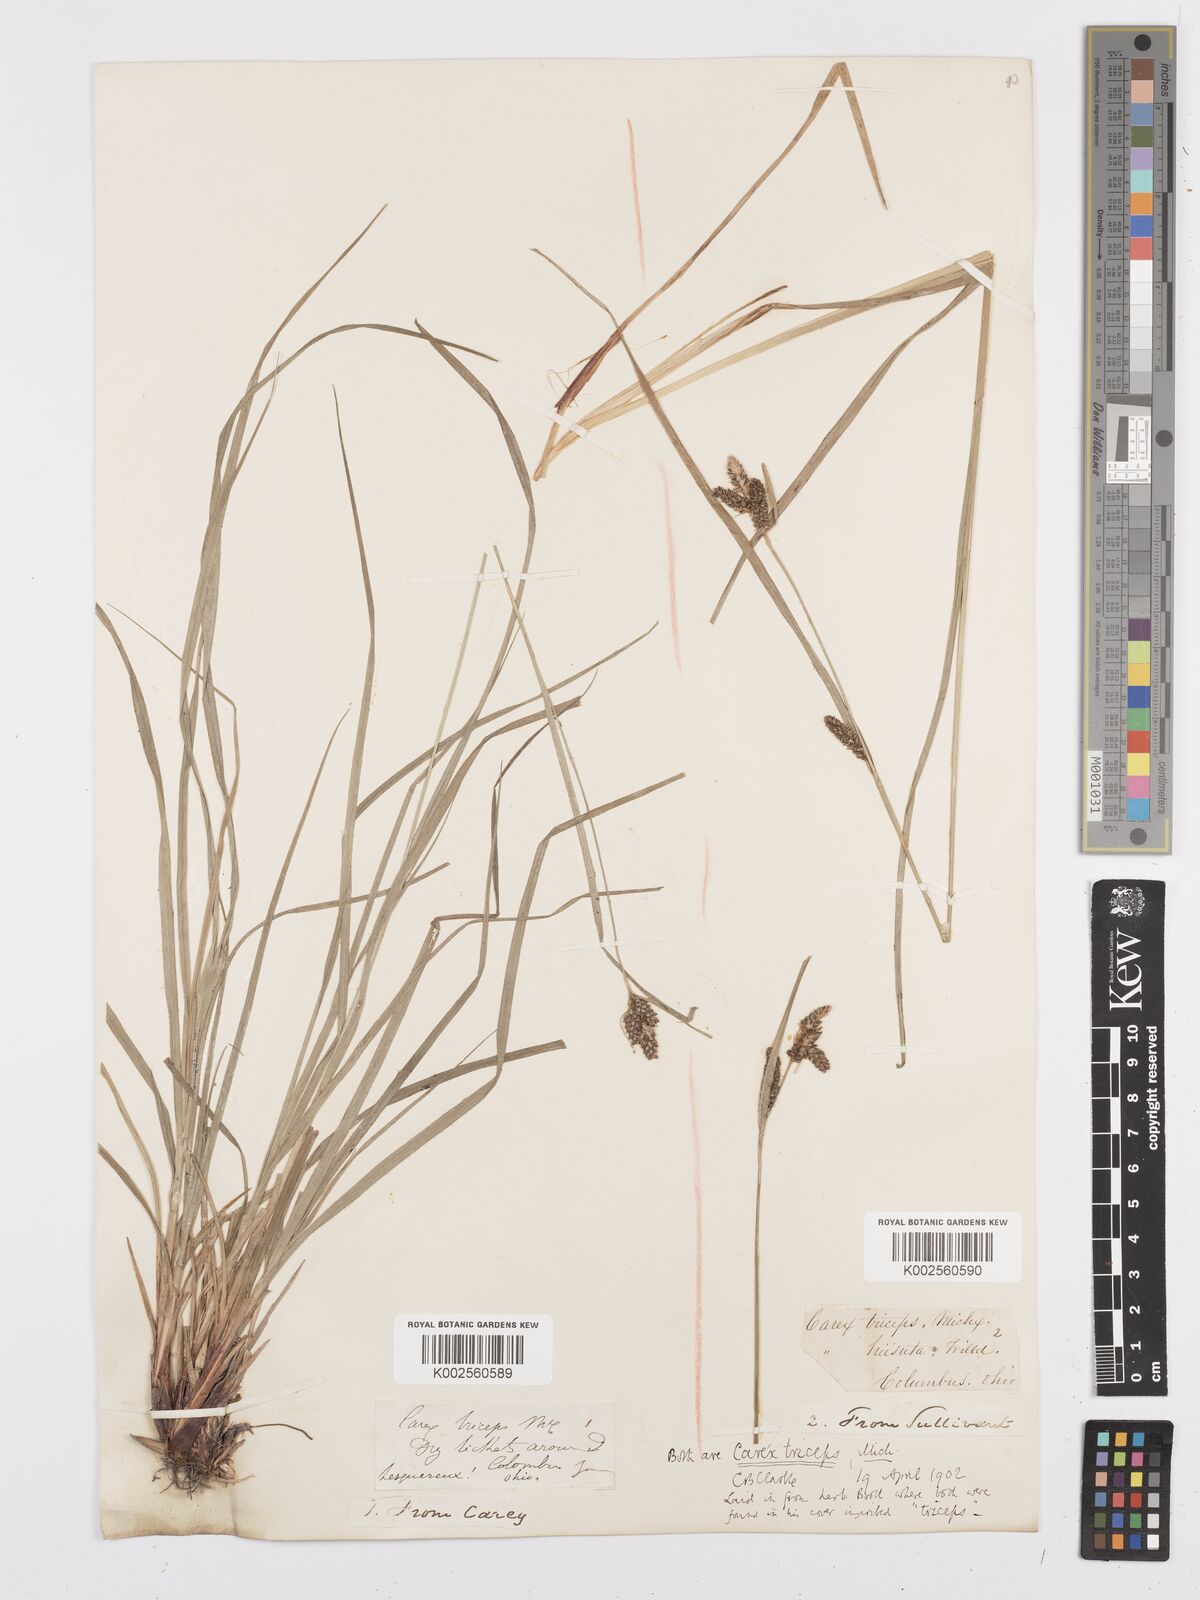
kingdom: Plantae
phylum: Tracheophyta
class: Liliopsida
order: Poales
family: Cyperaceae
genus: Carex
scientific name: Carex complanata
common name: Hirsute sedge
